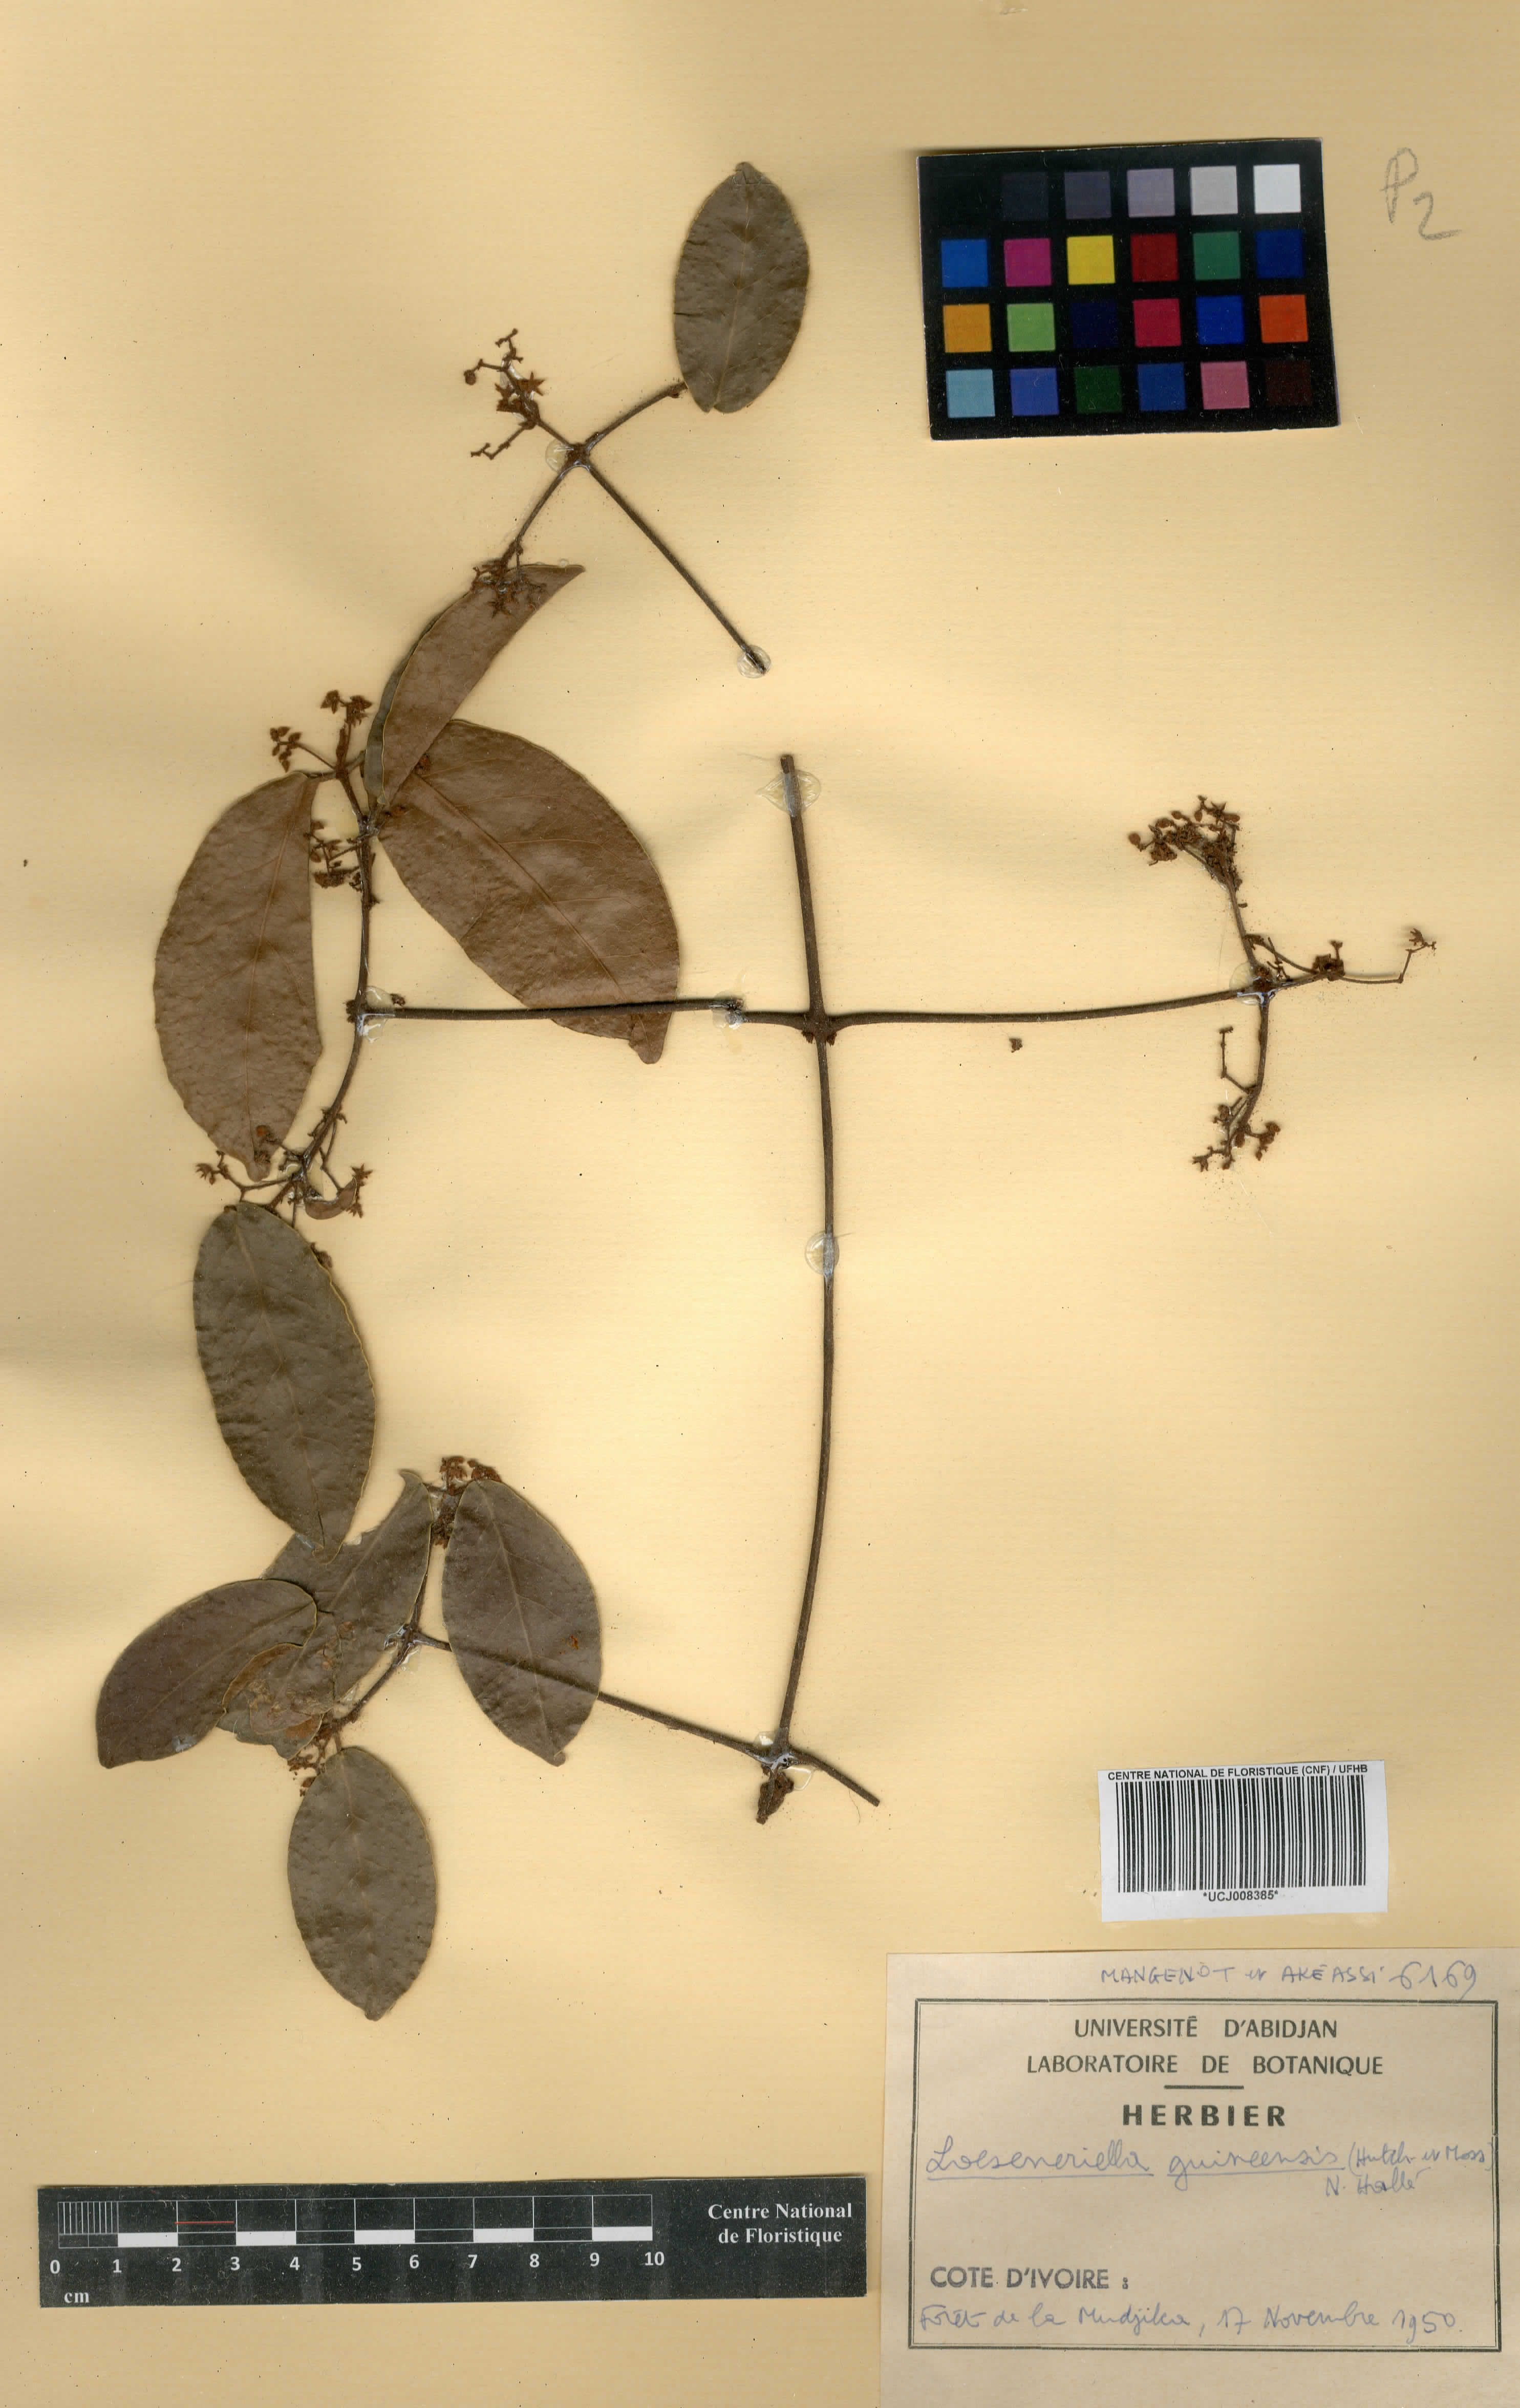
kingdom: Plantae
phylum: Tracheophyta
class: Magnoliopsida
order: Celastrales
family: Celastraceae
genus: Loeseneriella
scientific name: Loeseneriella ectypopetala
